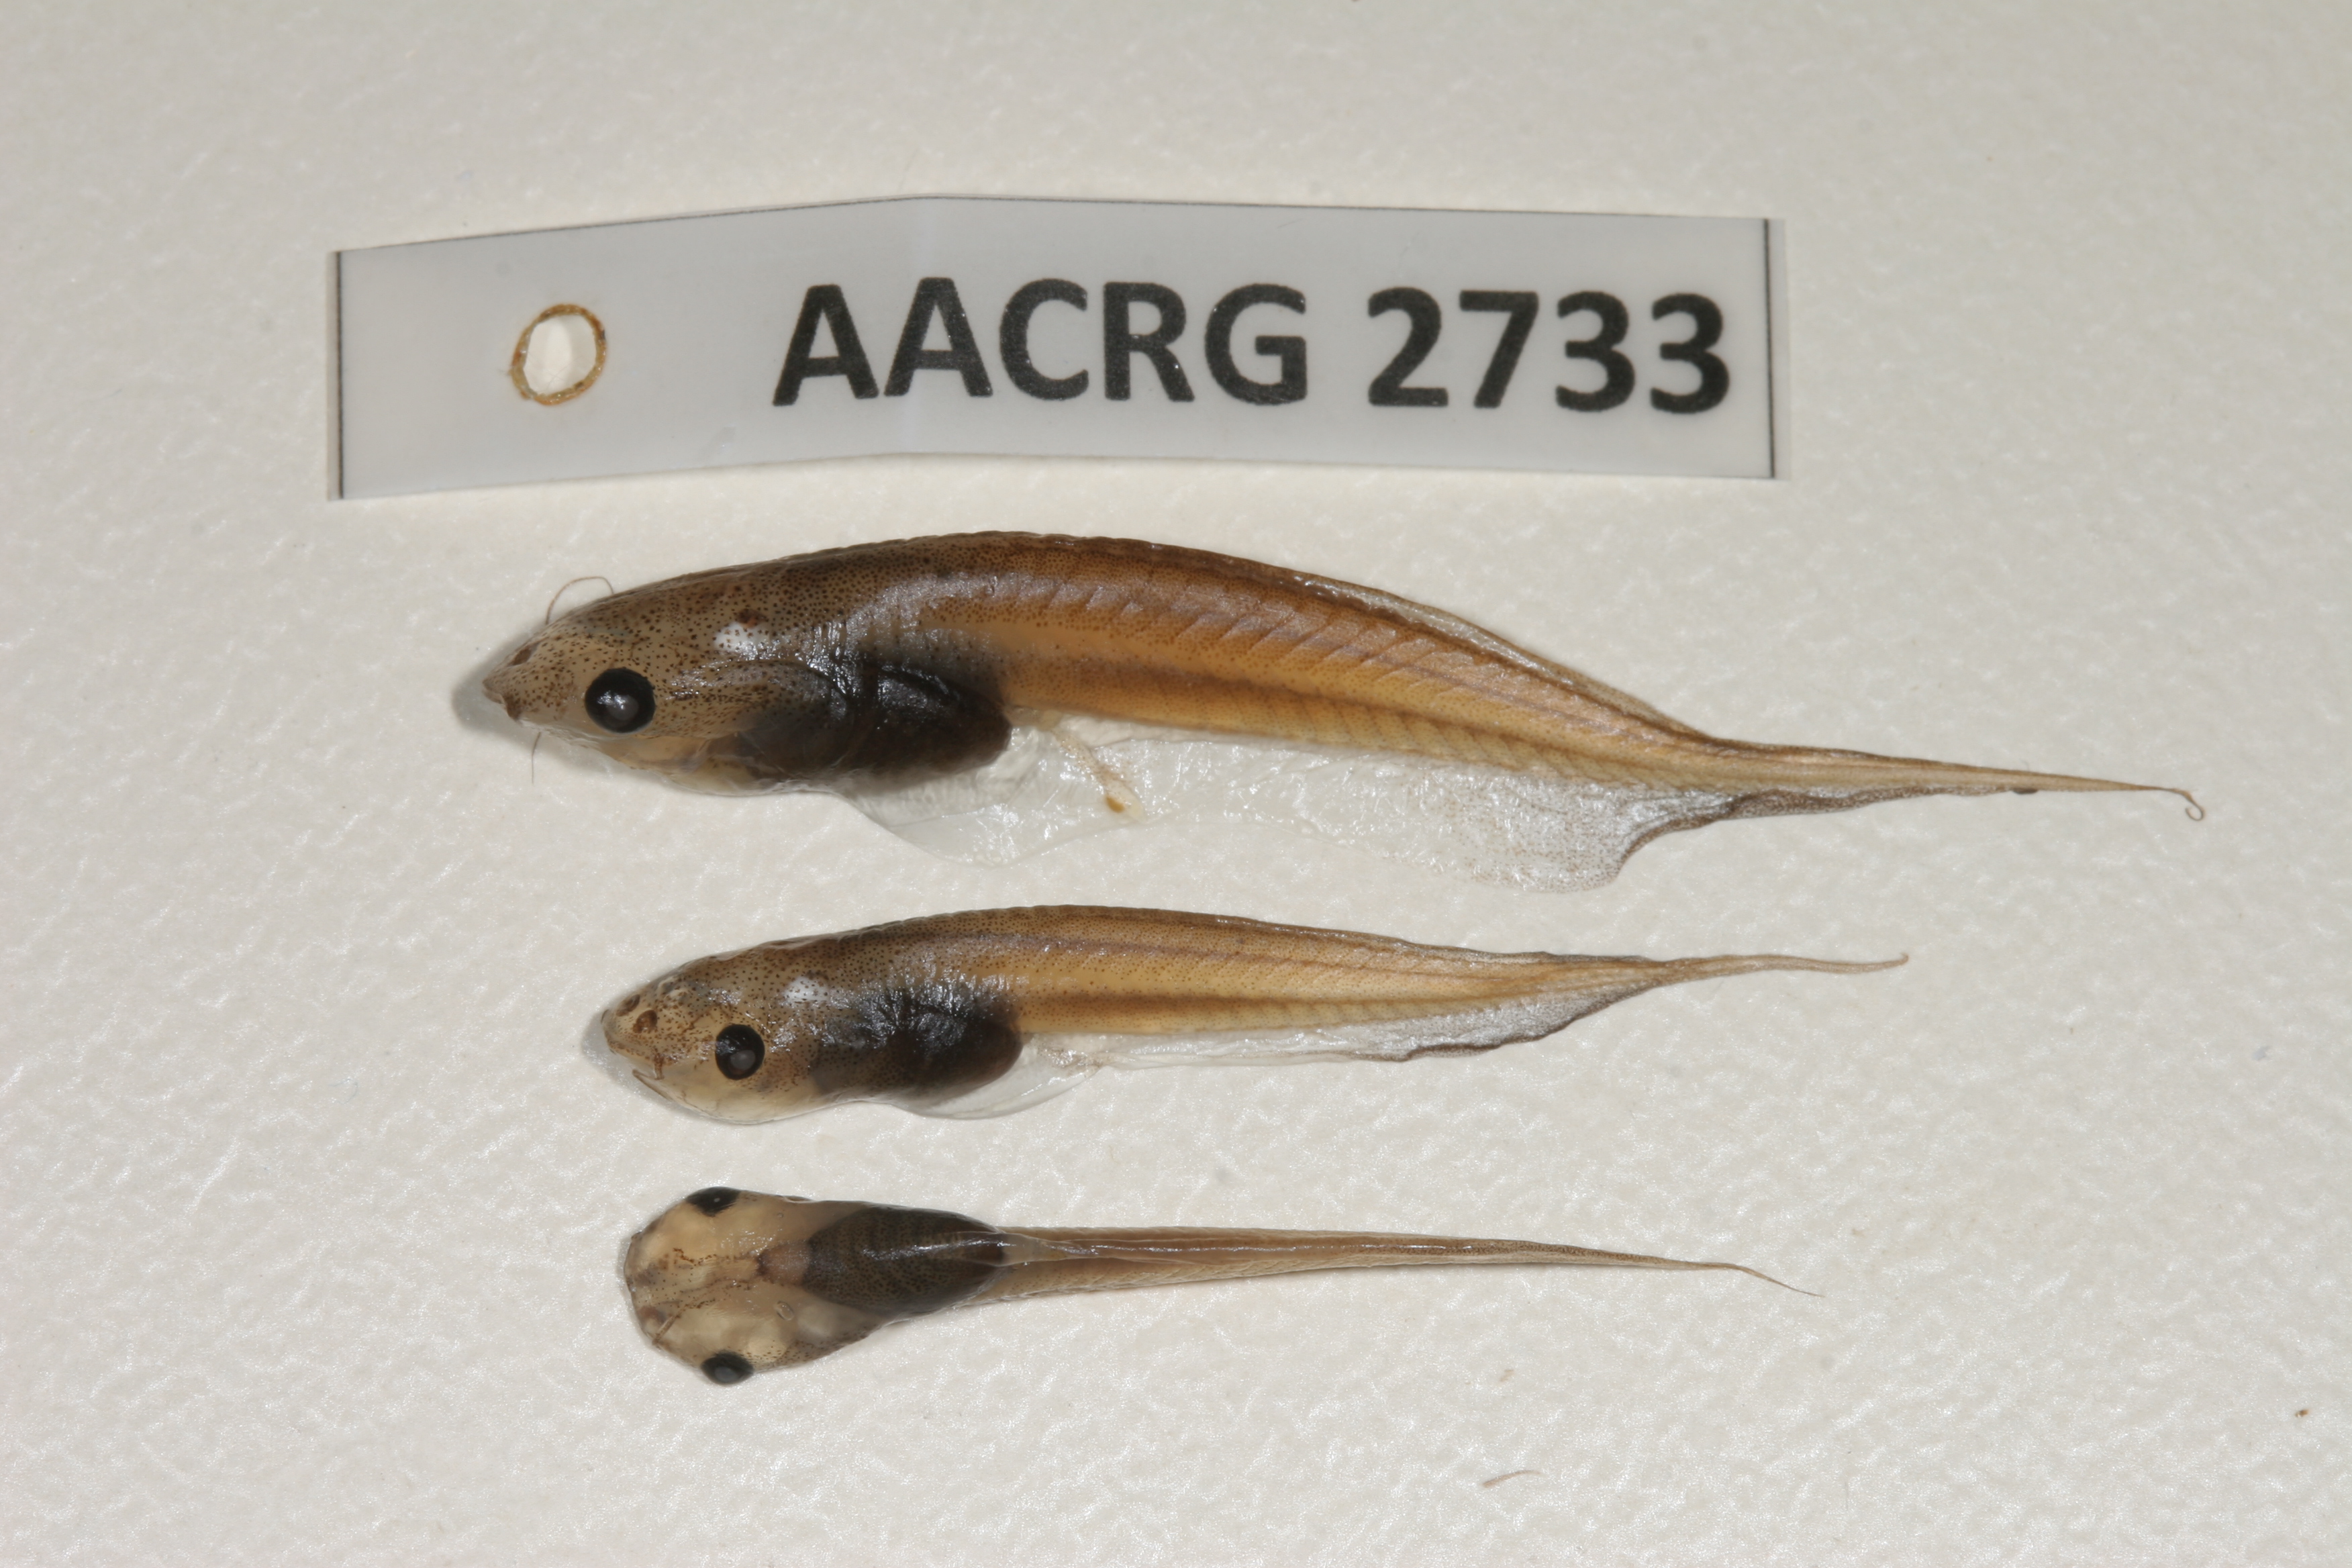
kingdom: Animalia
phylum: Chordata
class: Amphibia
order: Anura
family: Pipidae
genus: Xenopus
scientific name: Xenopus laevis
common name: African clawed frog
